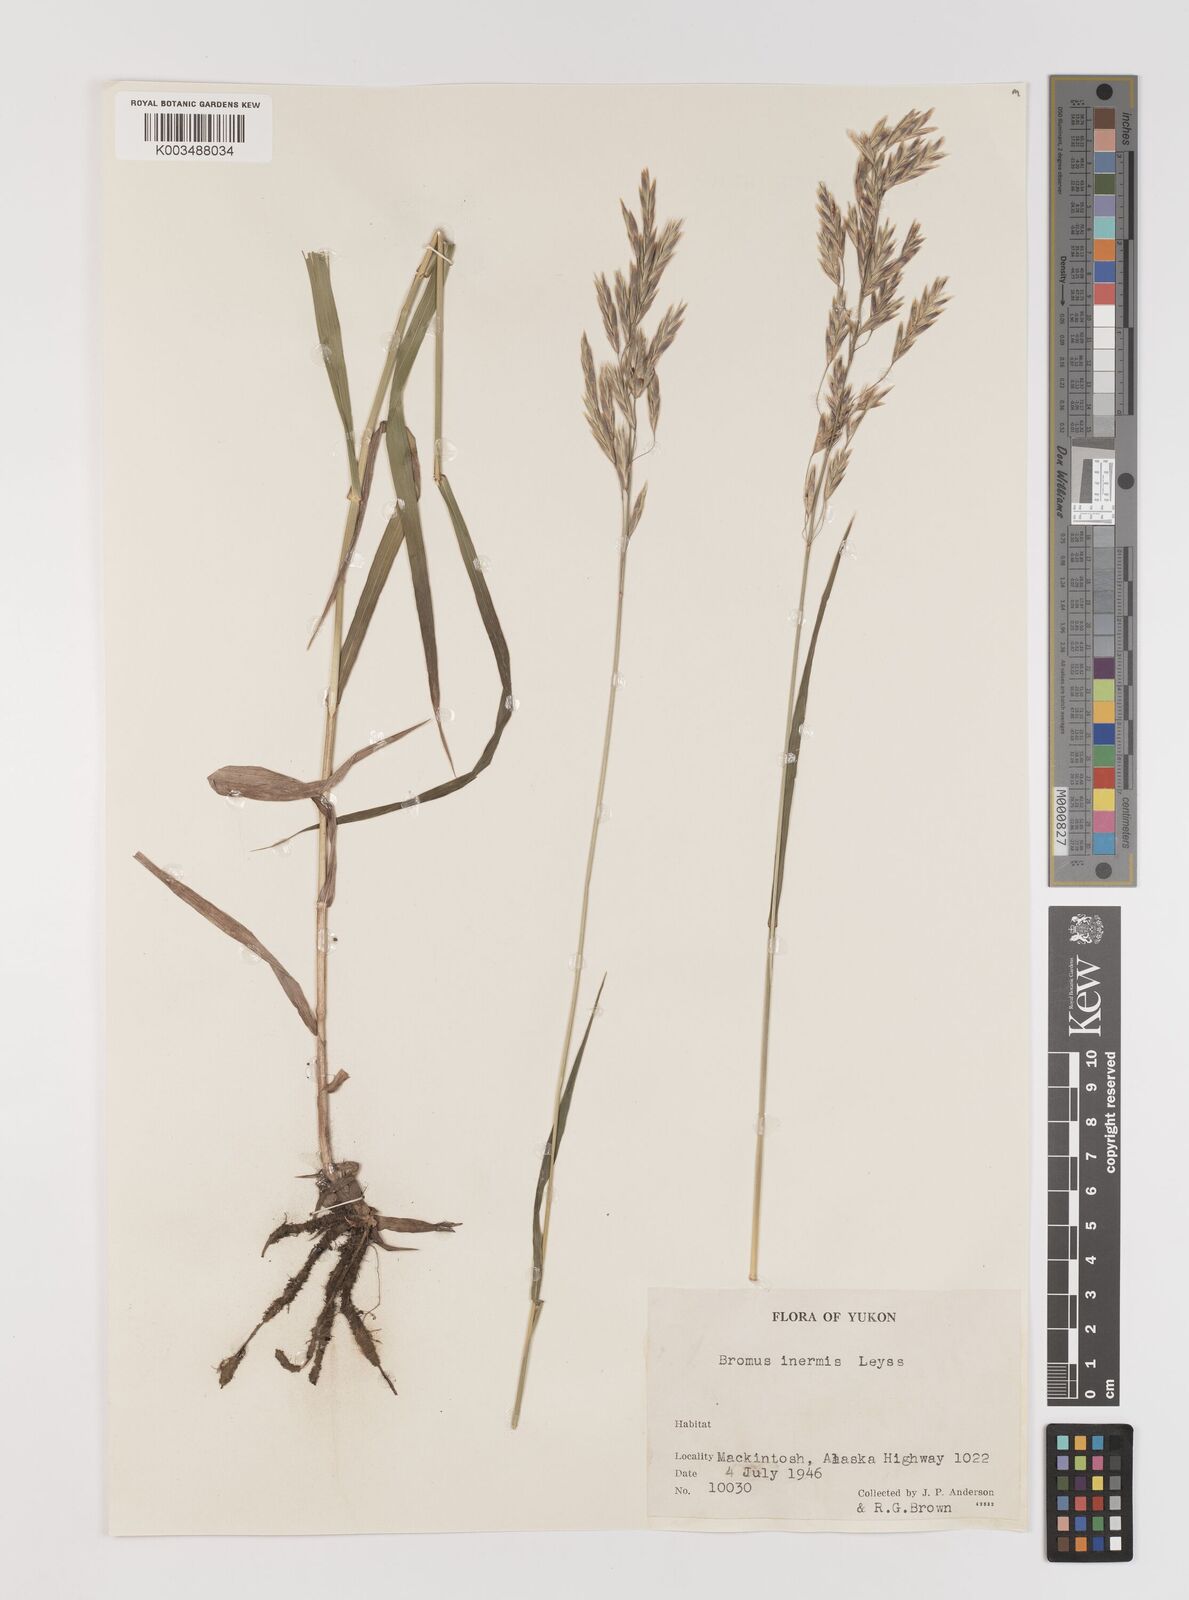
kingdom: Plantae
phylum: Tracheophyta
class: Liliopsida
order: Poales
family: Poaceae
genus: Bromus
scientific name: Bromus inermis
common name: Smooth brome
